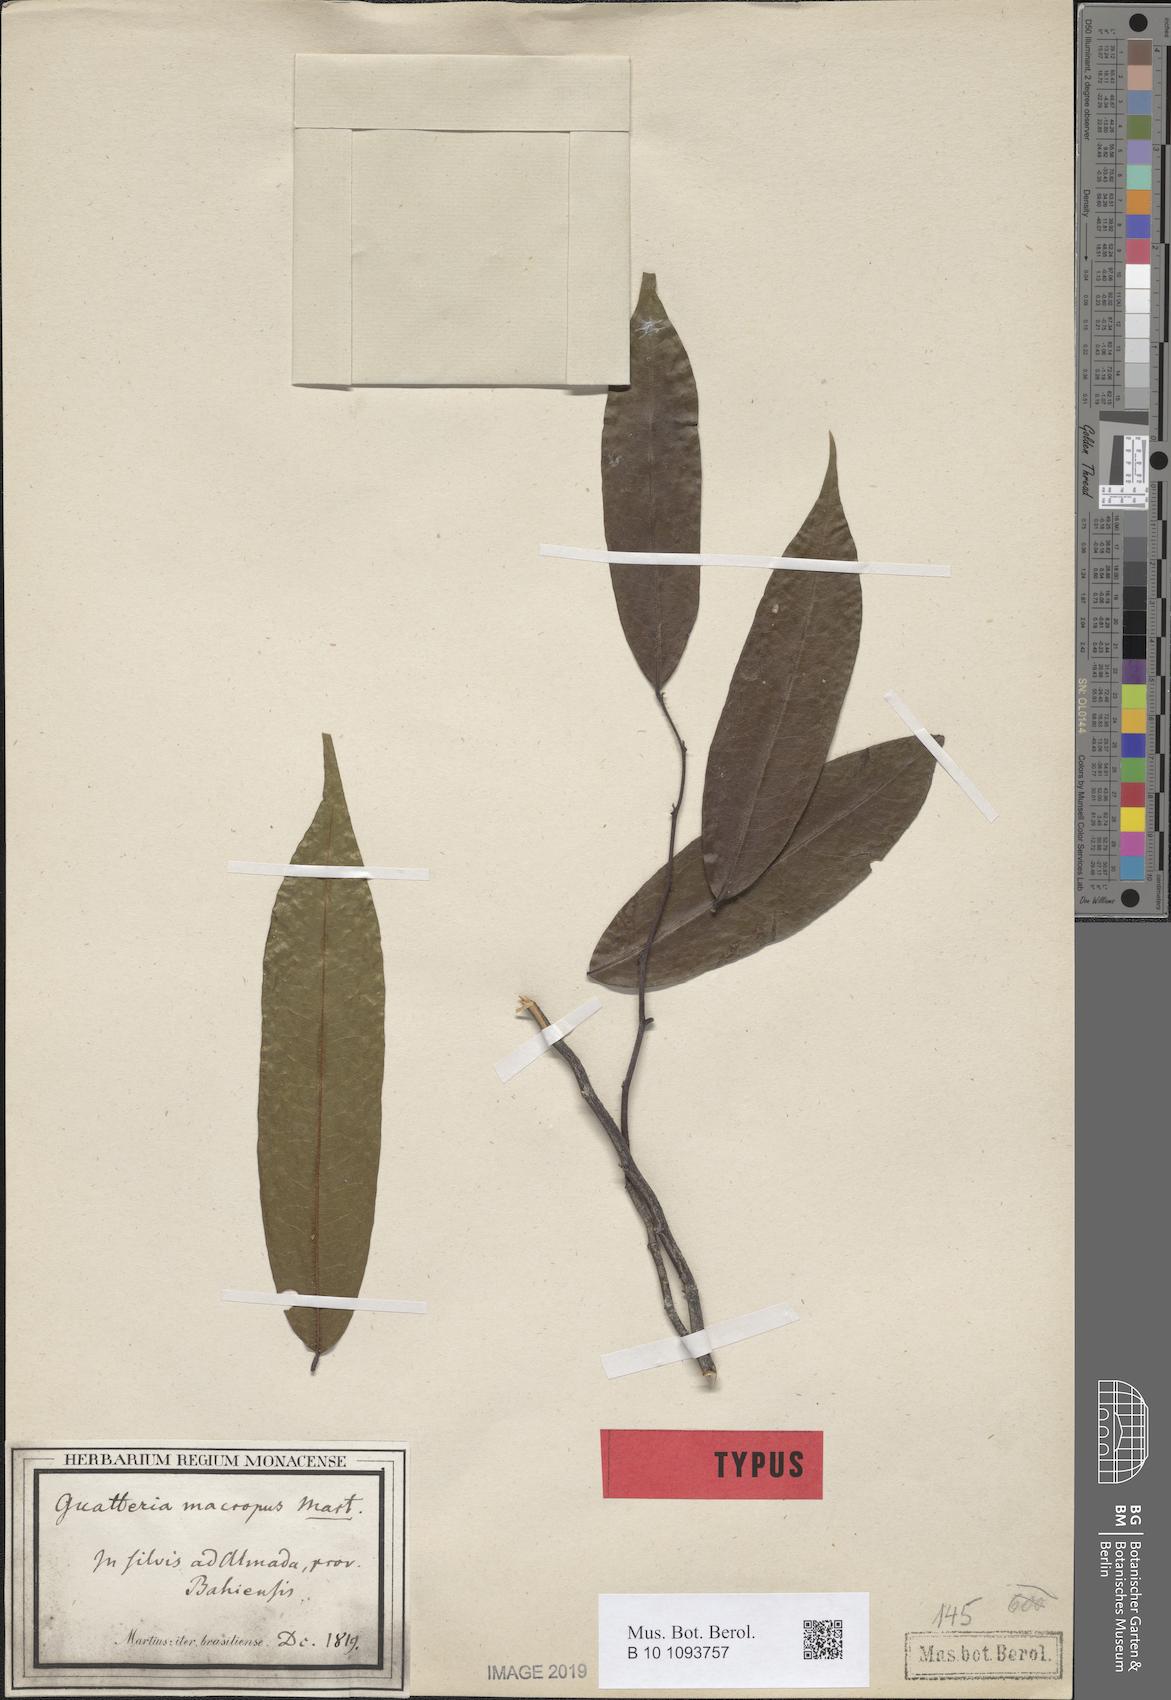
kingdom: Plantae
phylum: Tracheophyta
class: Magnoliopsida
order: Magnoliales
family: Annonaceae
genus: Guatteria
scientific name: Guatteria macropus
